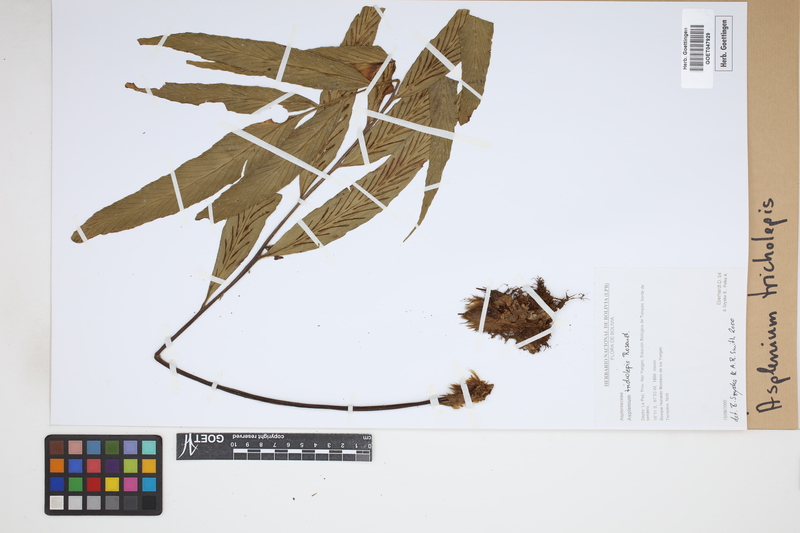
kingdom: Plantae
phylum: Tracheophyta
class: Polypodiopsida
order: Polypodiales
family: Aspleniaceae
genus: Asplenium
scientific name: Asplenium tricholepis
